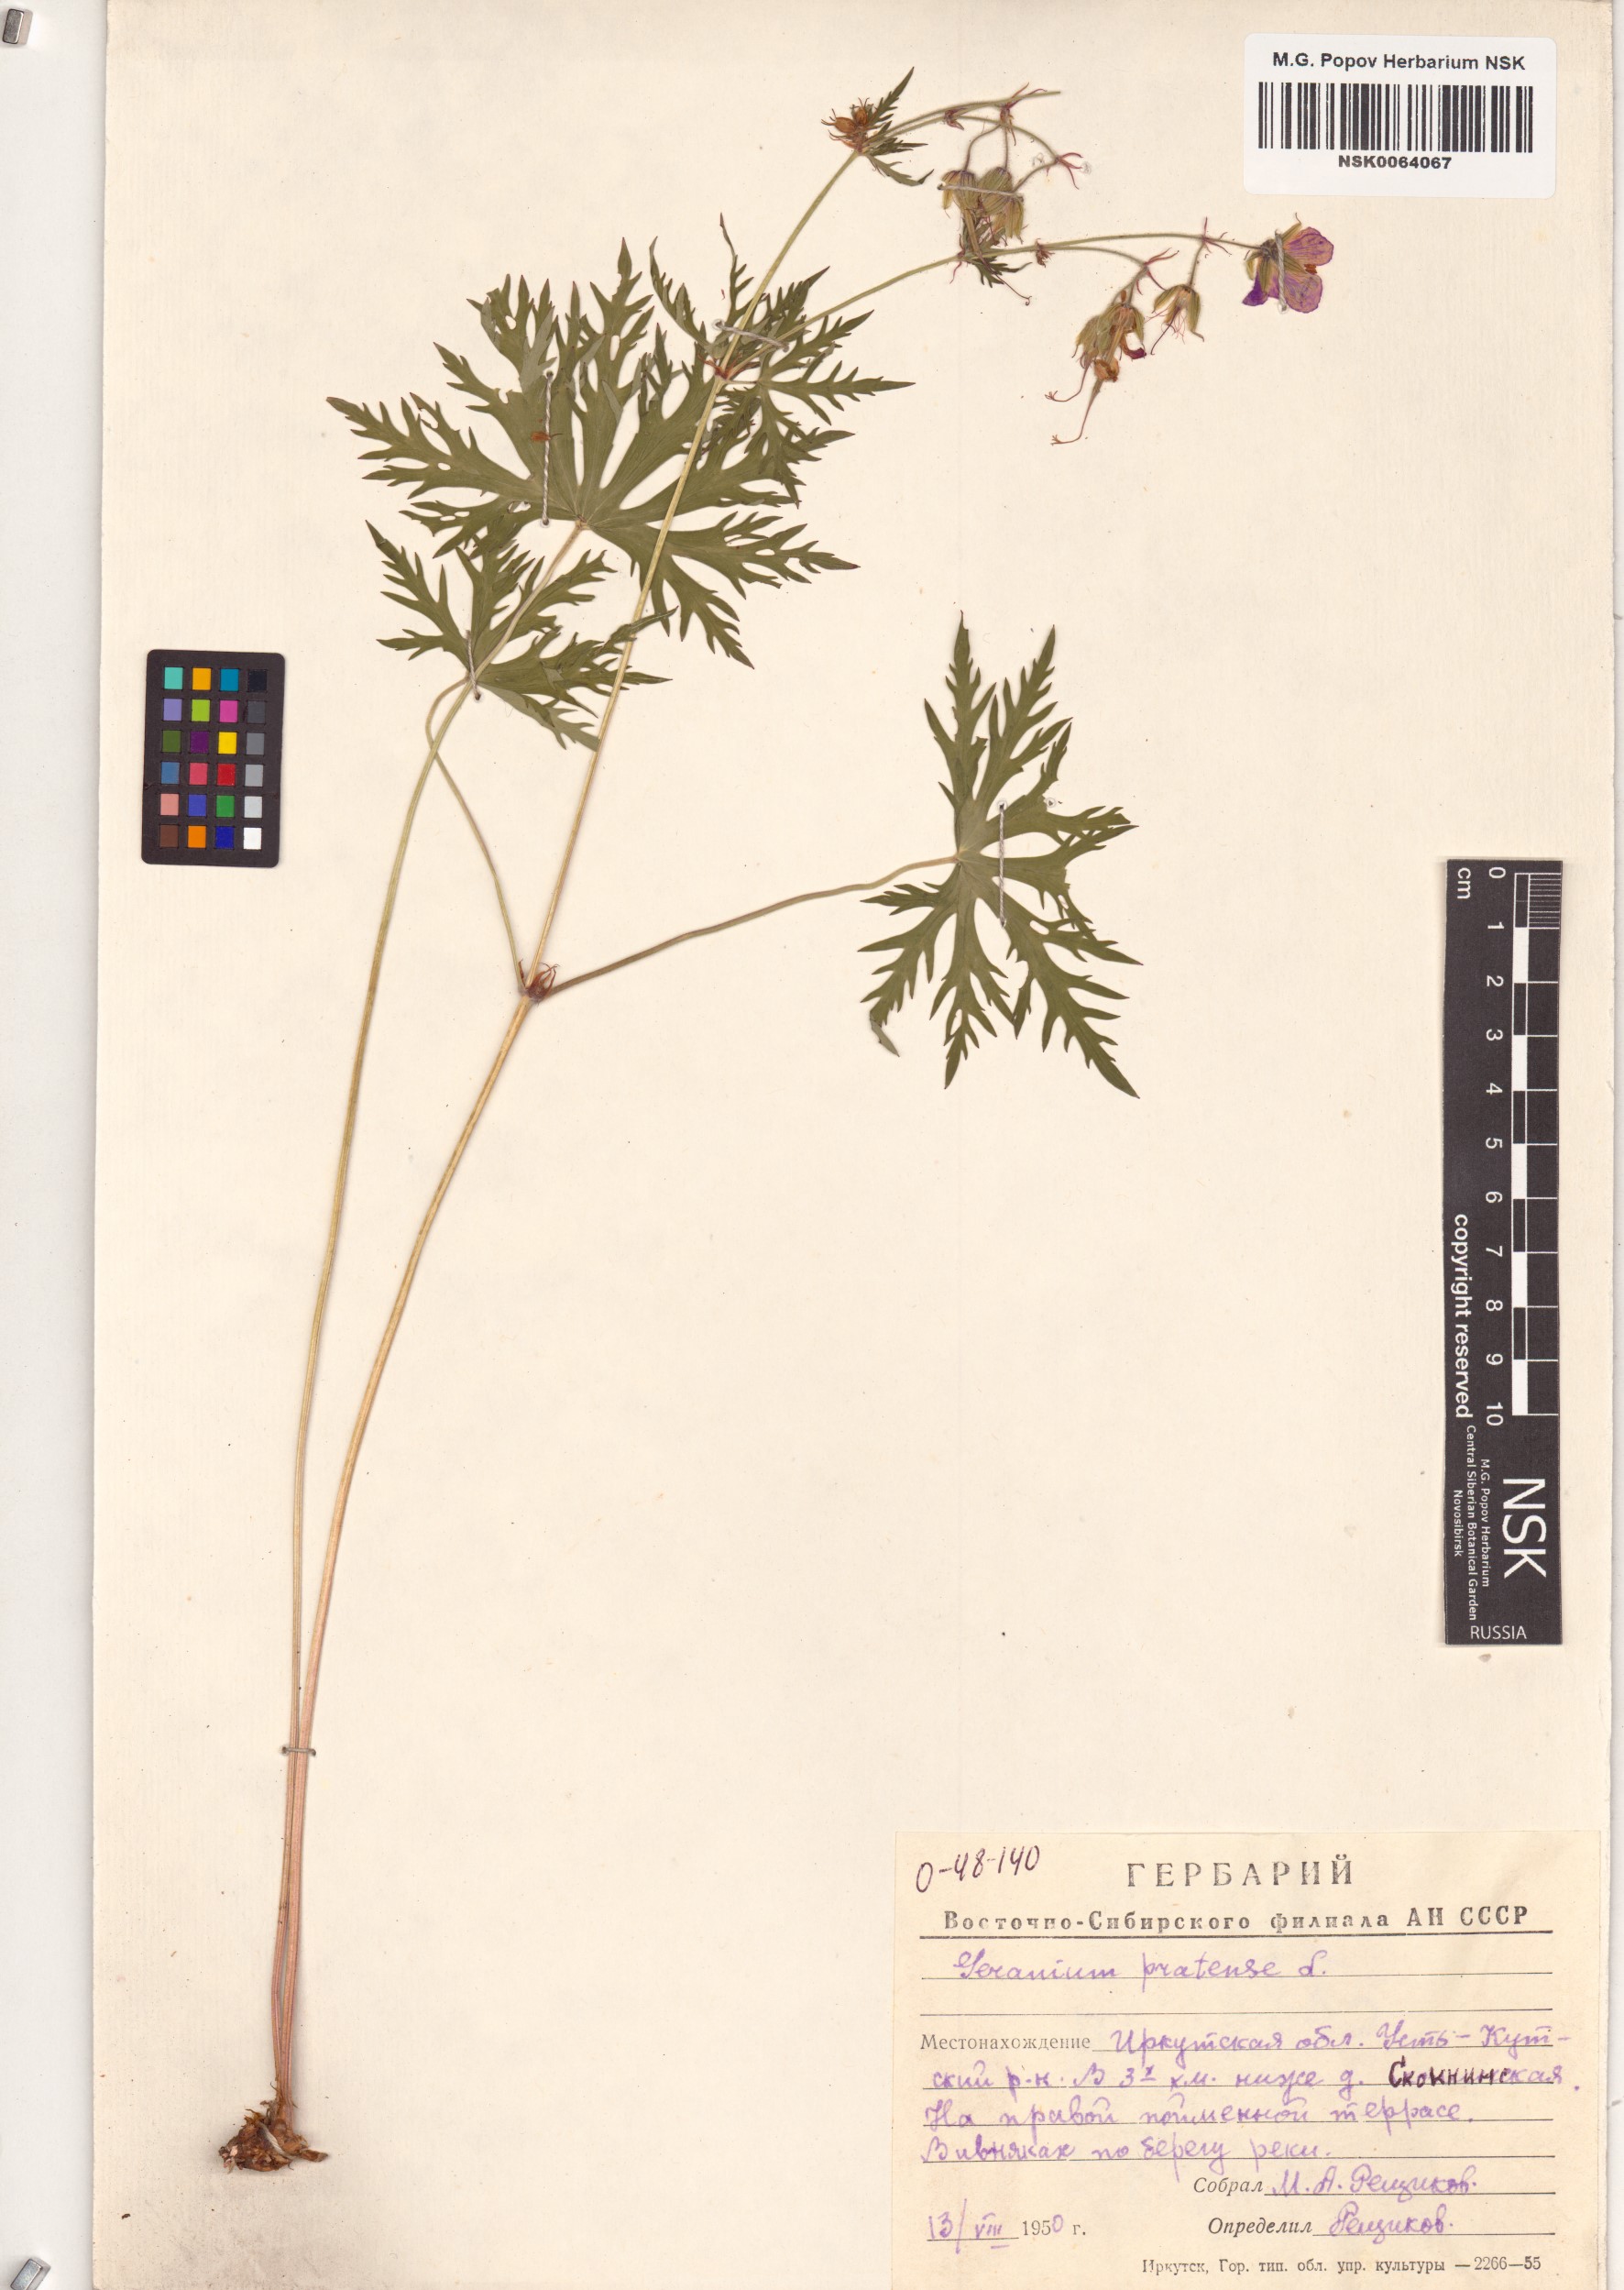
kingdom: Plantae
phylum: Tracheophyta
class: Magnoliopsida
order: Geraniales
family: Geraniaceae
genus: Geranium
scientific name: Geranium pratense
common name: Meadow crane's-bill
